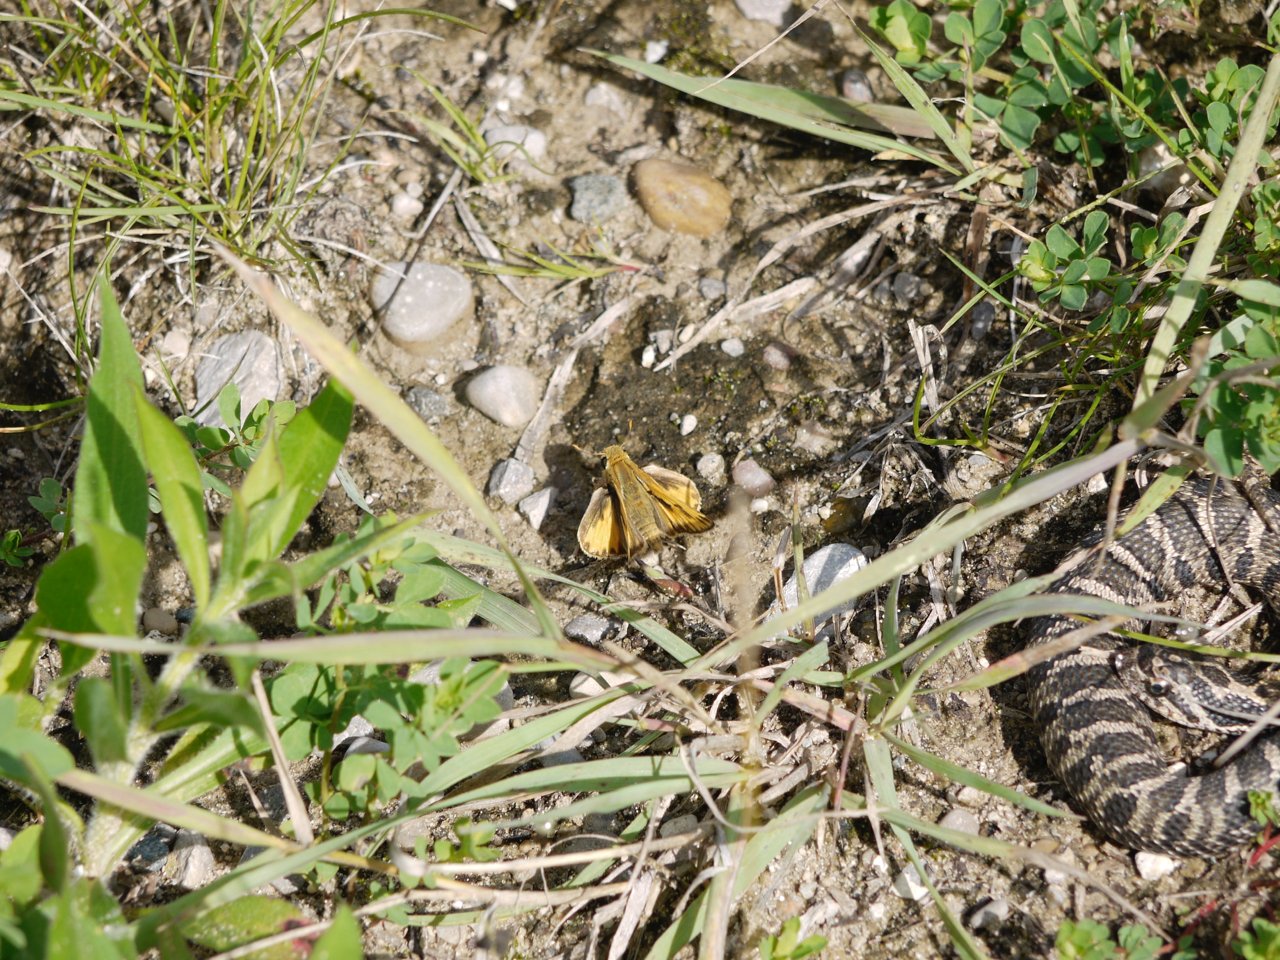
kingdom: Animalia
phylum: Arthropoda
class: Insecta
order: Lepidoptera
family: Hesperiidae
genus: Hylephila
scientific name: Hylephila phyleus
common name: Fiery Skipper
